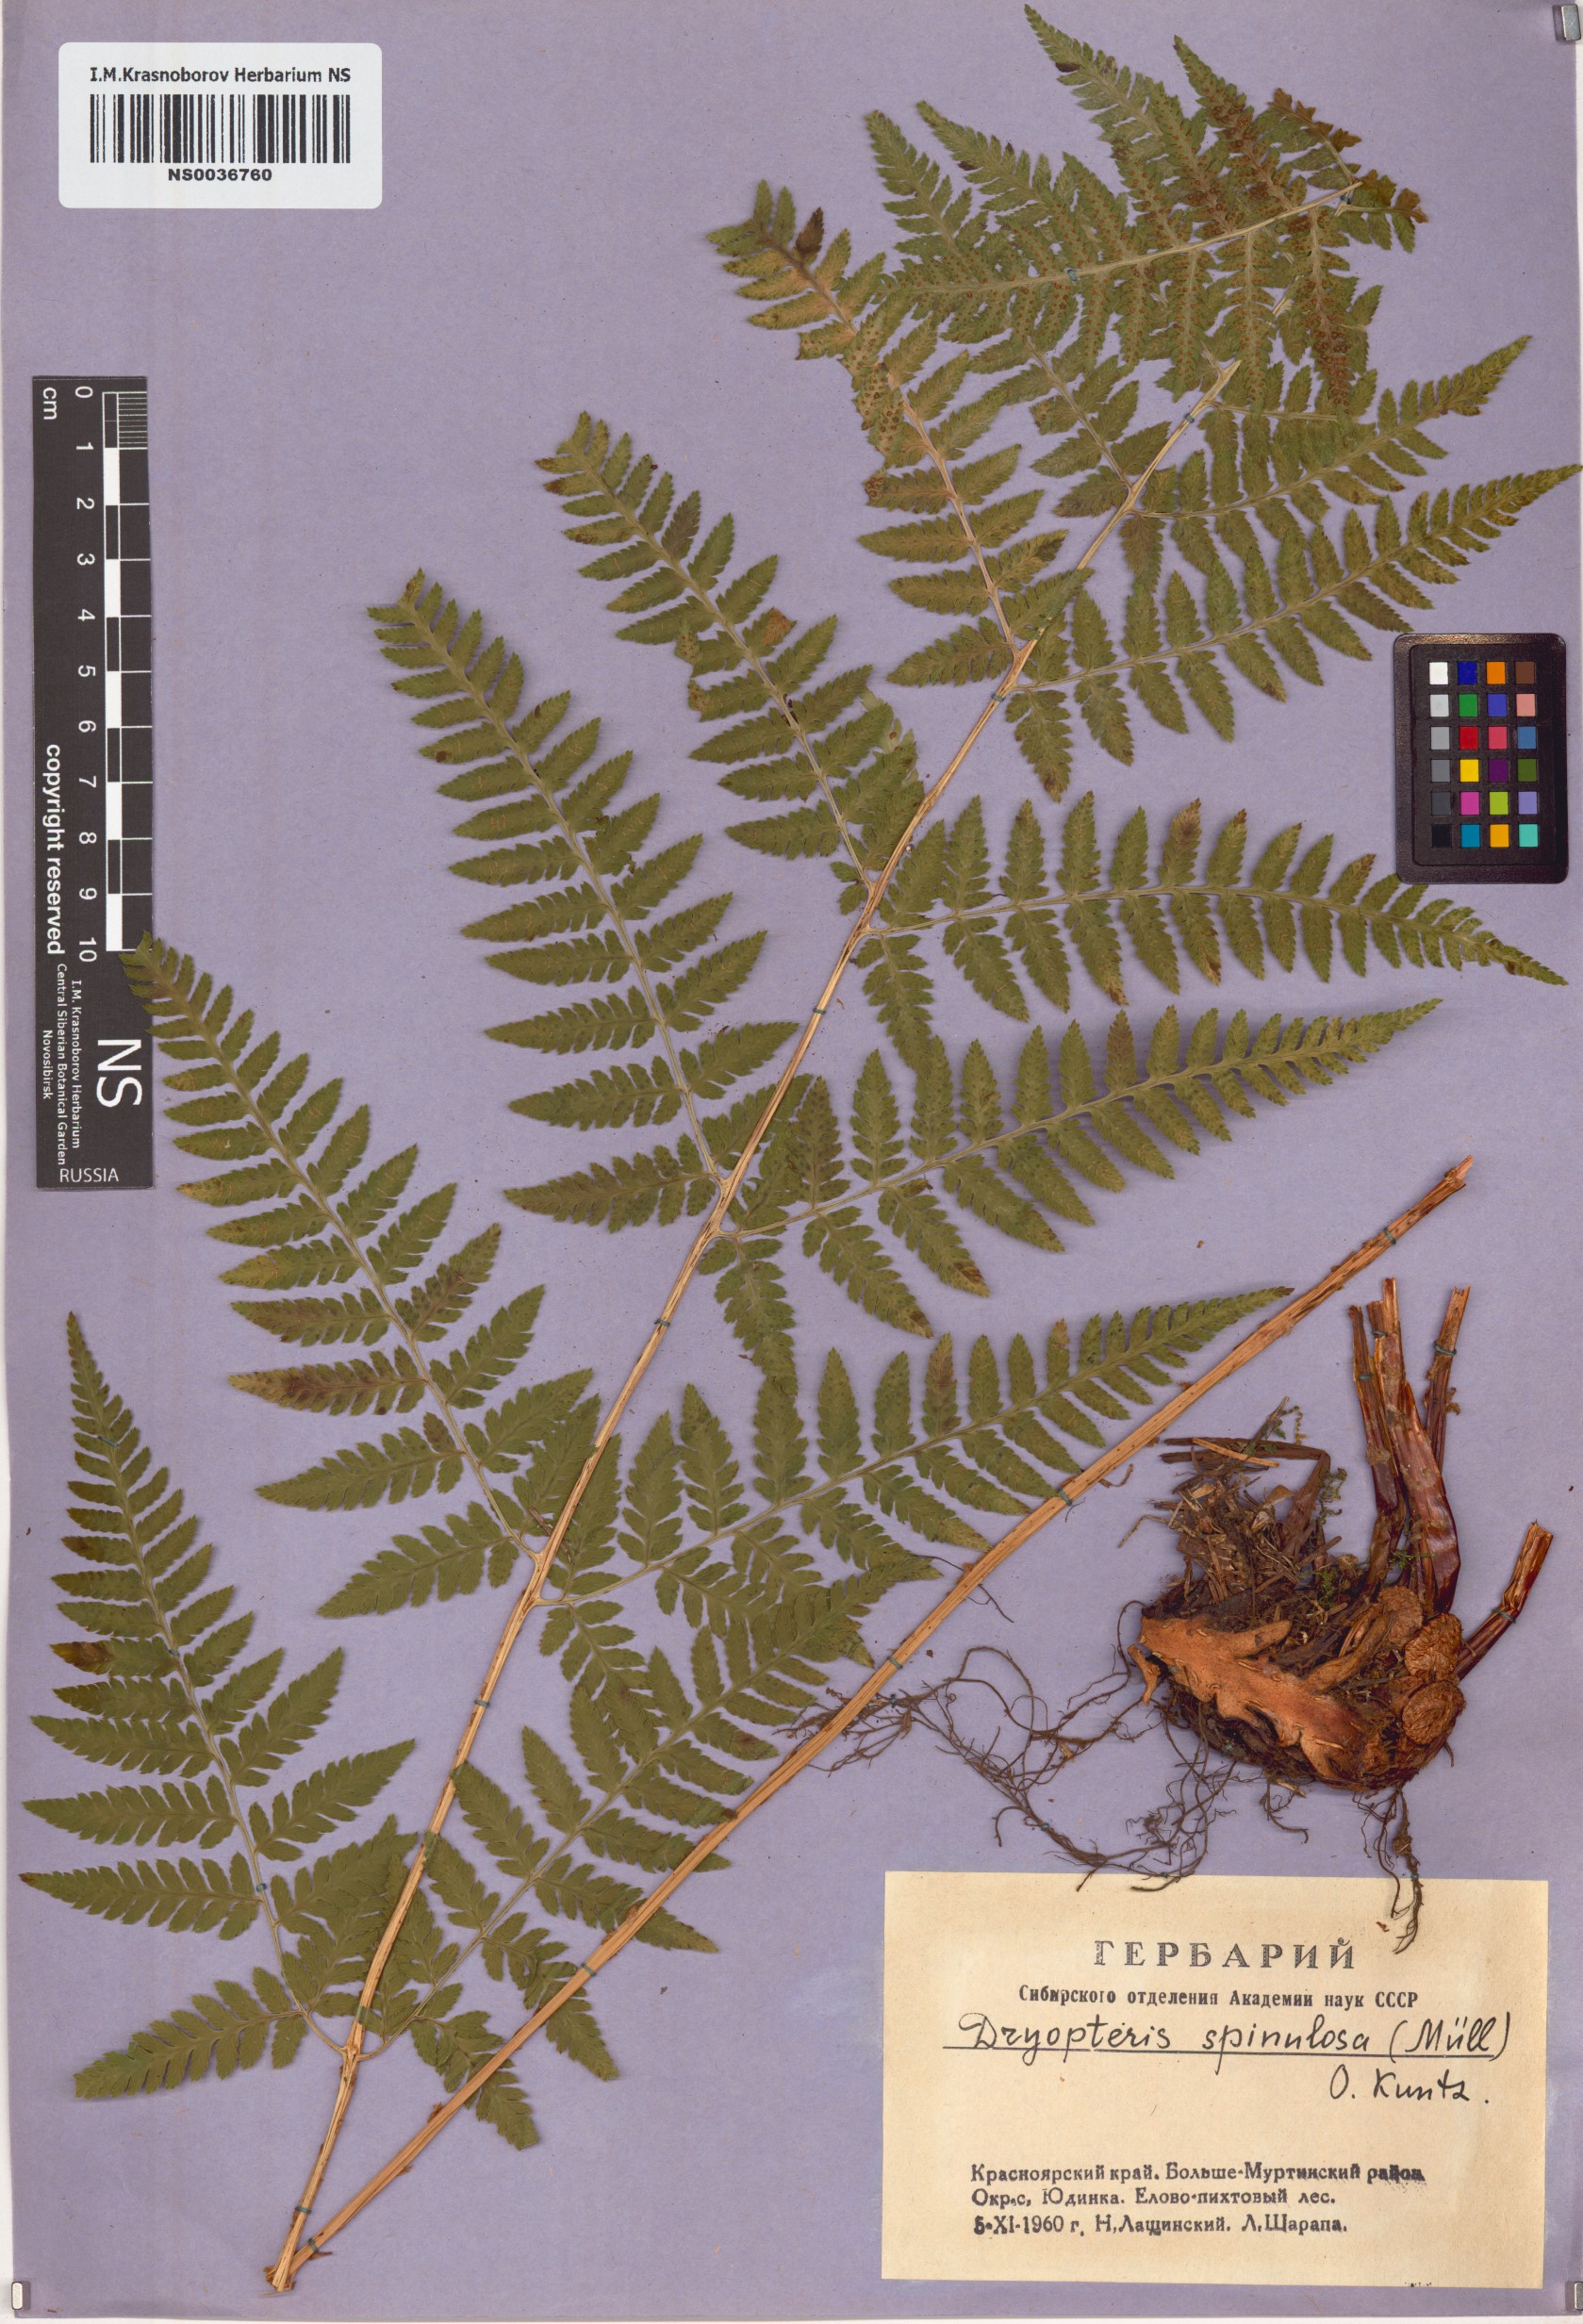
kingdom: Plantae
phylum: Tracheophyta
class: Polypodiopsida
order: Polypodiales
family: Dryopteridaceae
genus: Dryopteris
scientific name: Dryopteris carthusiana
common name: Narrow buckler-fern
